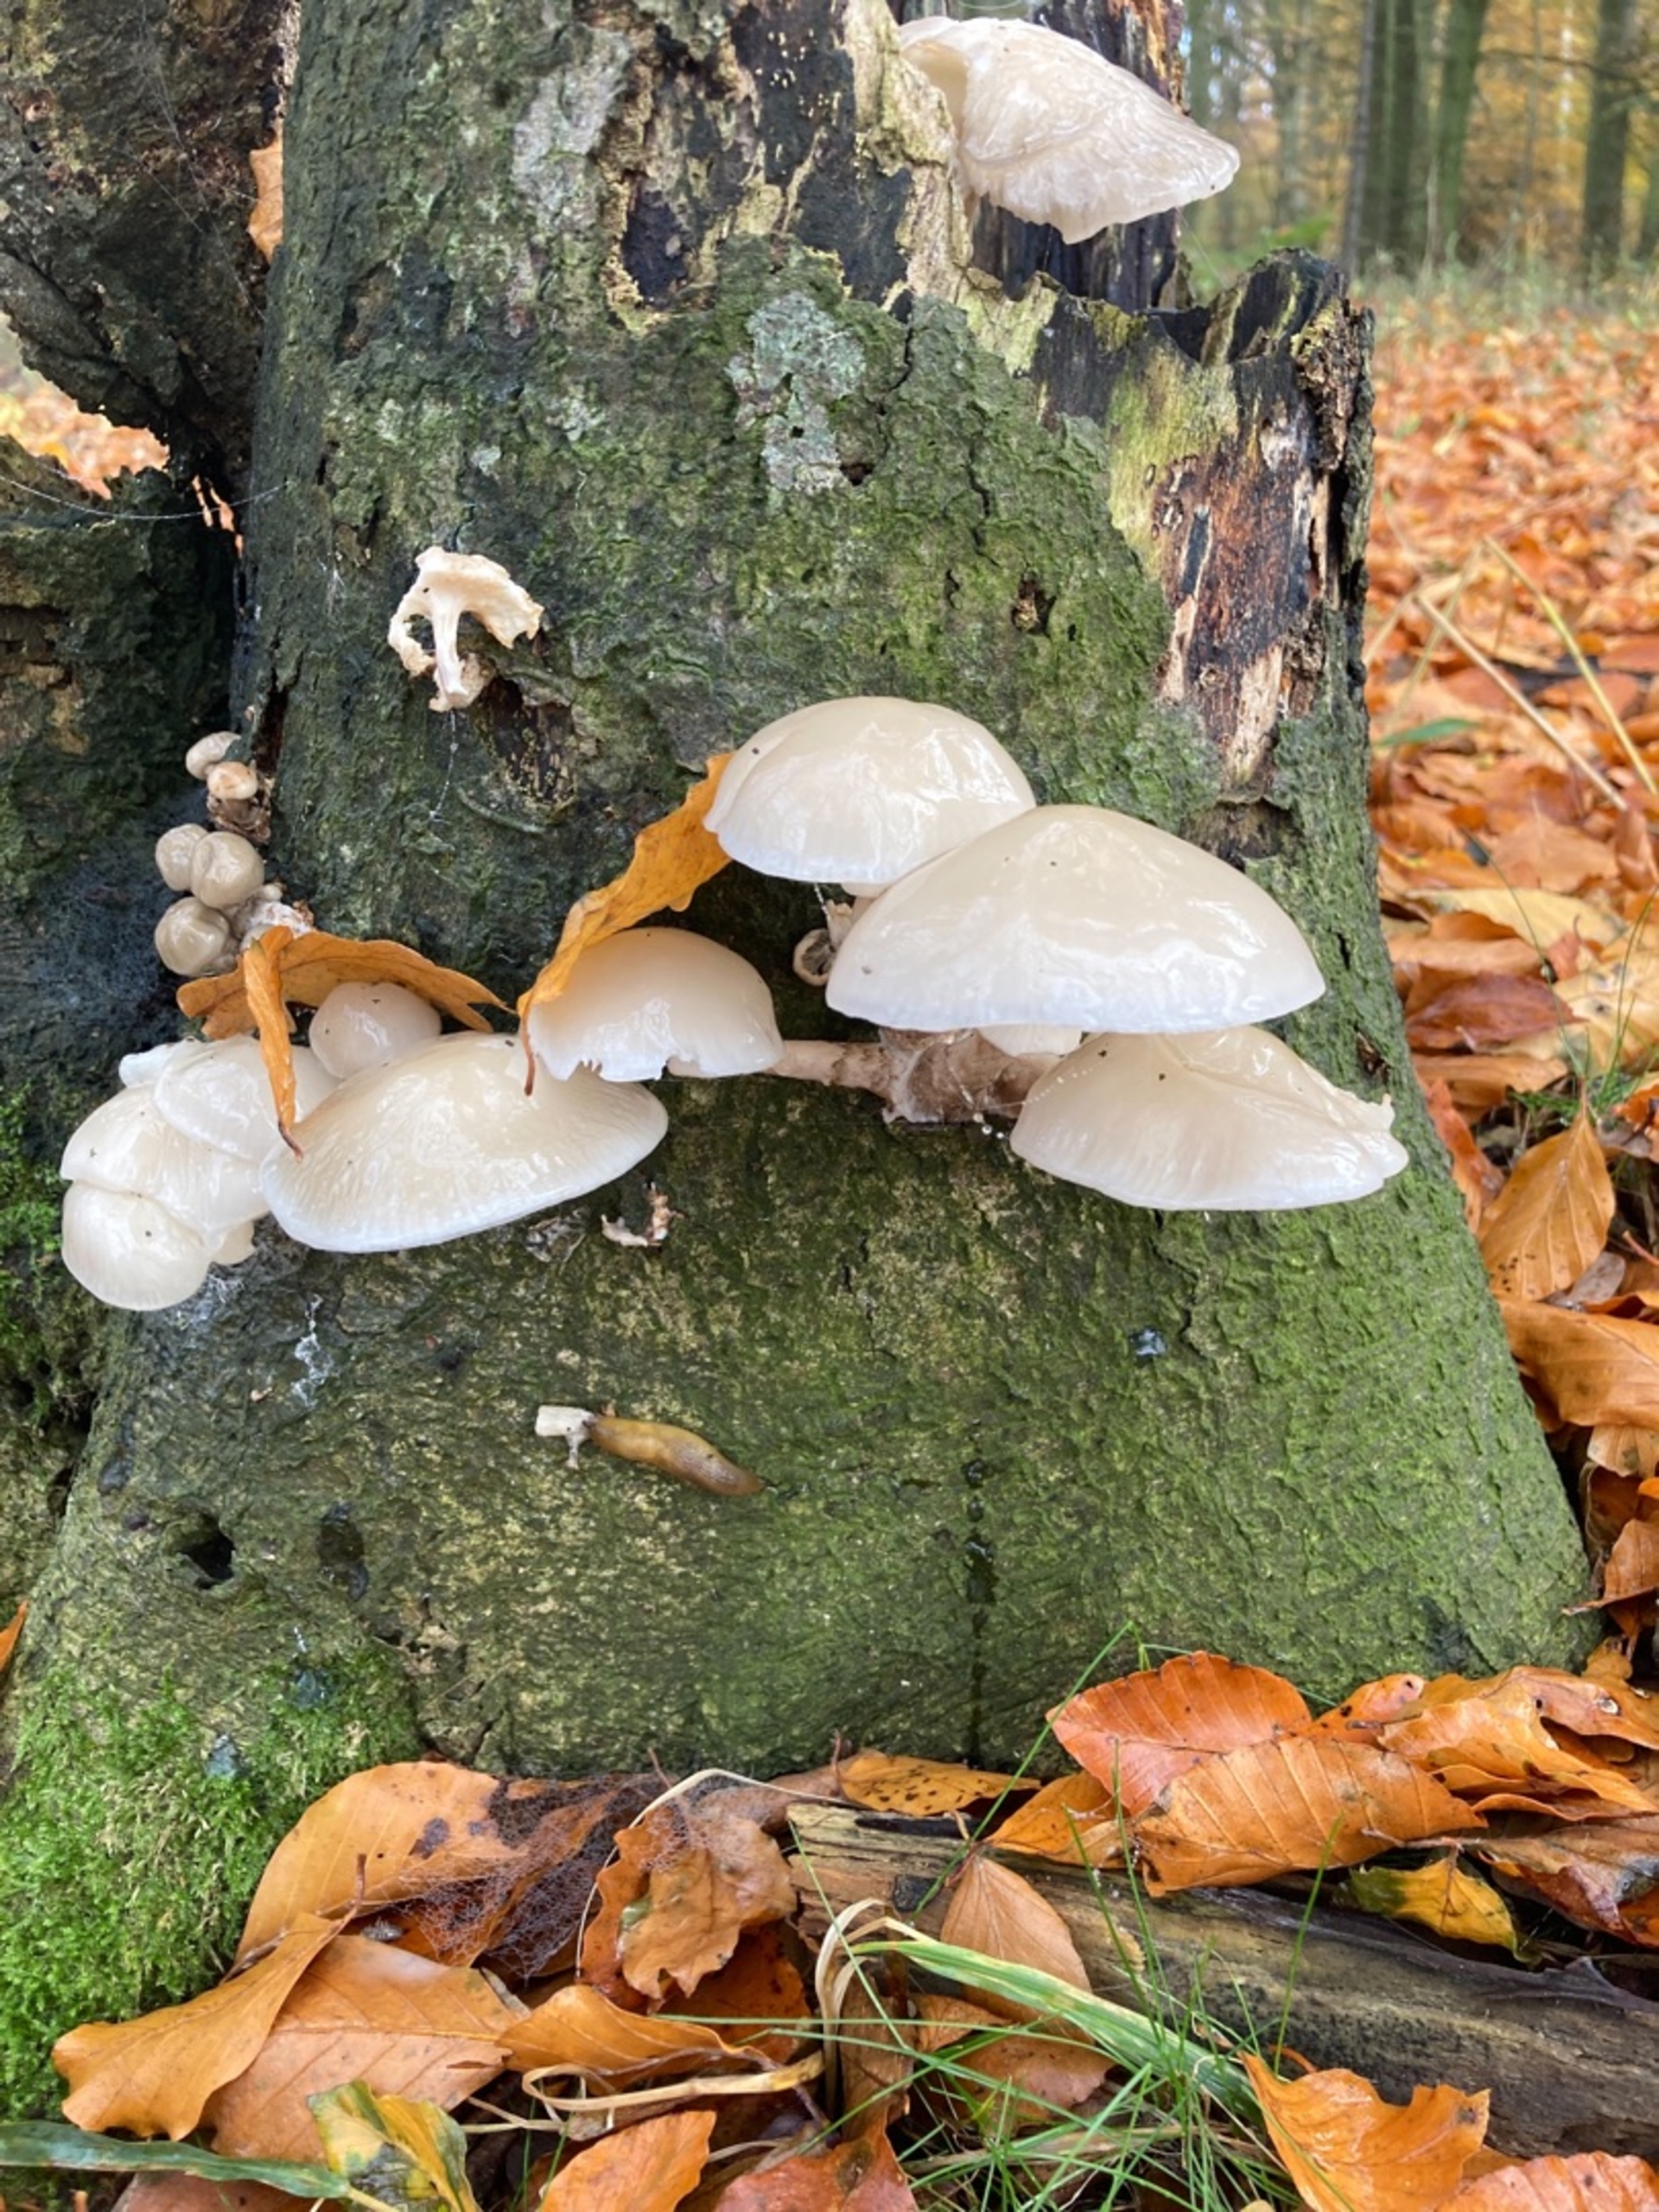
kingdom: Fungi
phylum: Basidiomycota
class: Agaricomycetes
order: Agaricales
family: Physalacriaceae
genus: Mucidula
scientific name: Mucidula mucida
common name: Porcelænshat
